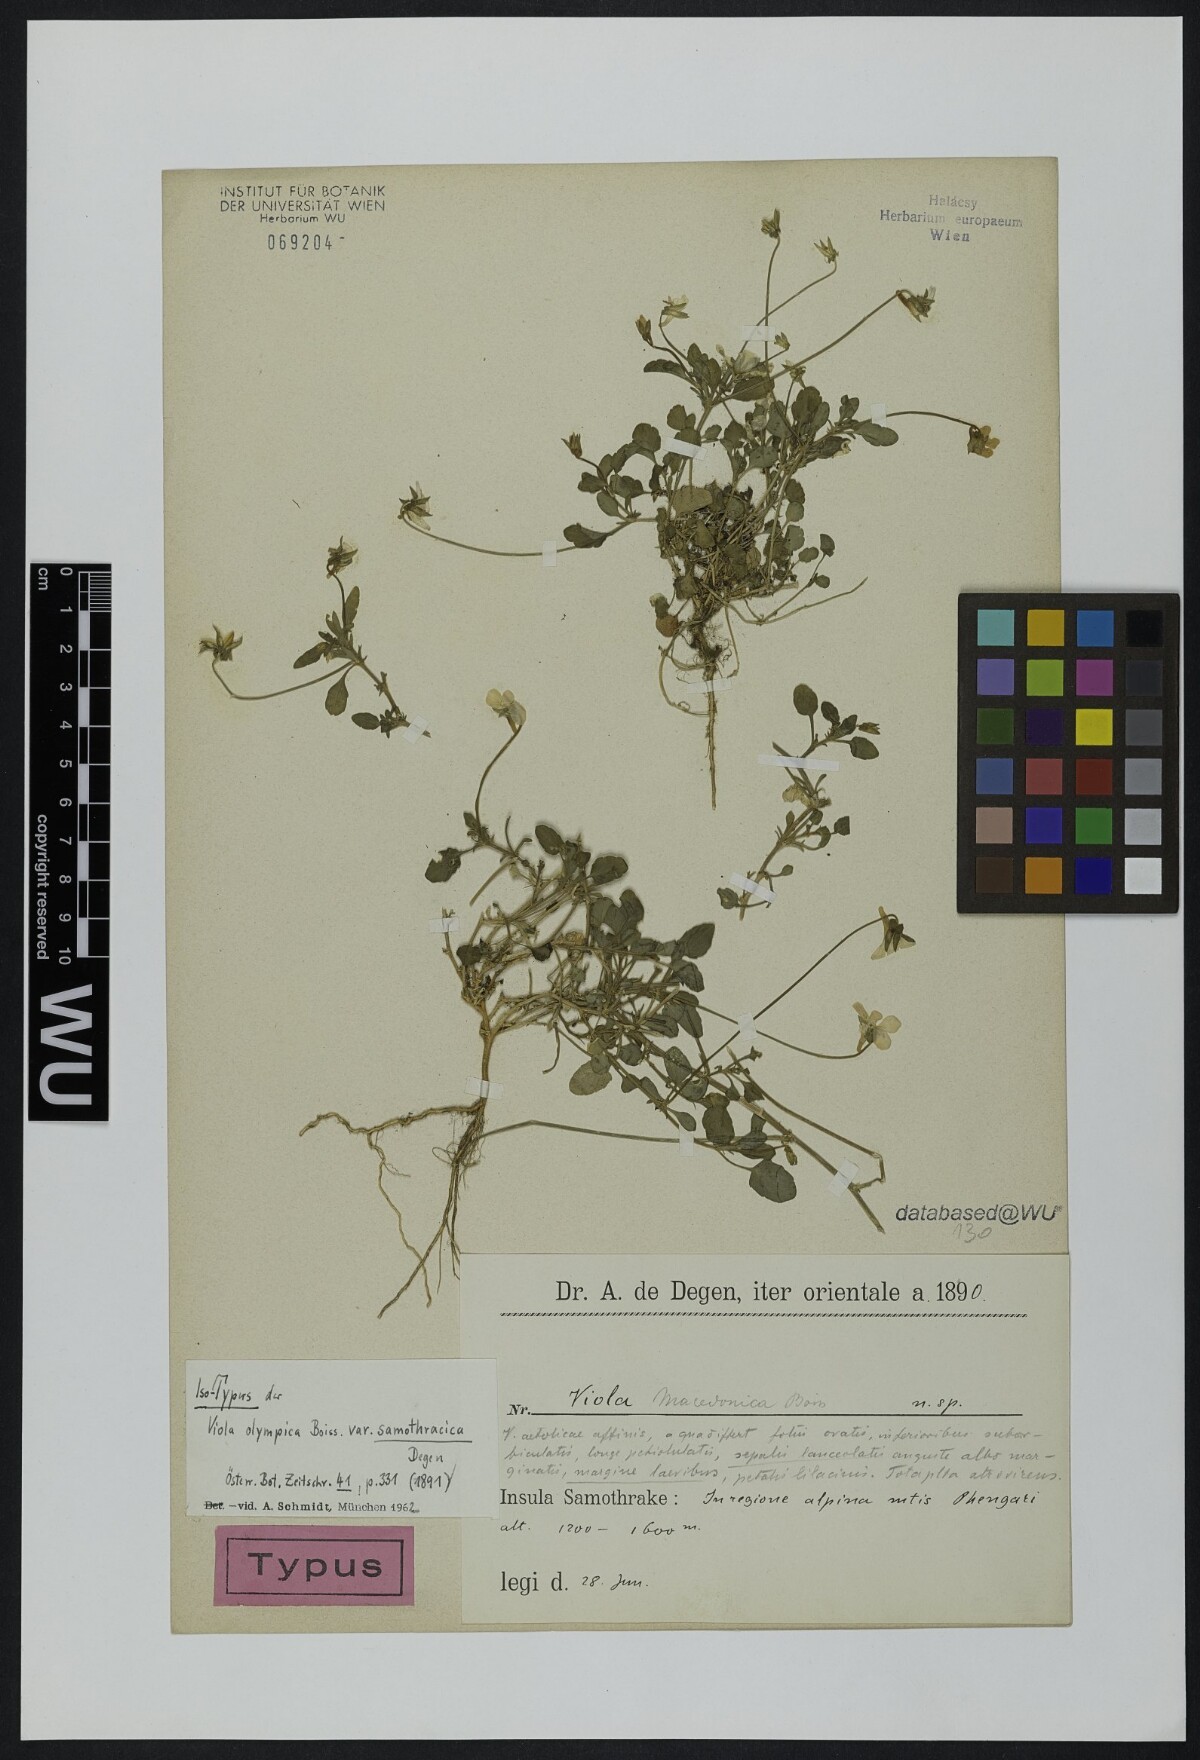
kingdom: Plantae
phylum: Tracheophyta
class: Magnoliopsida
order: Malpighiales
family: Violaceae
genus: Viola
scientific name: Viola samothracica
